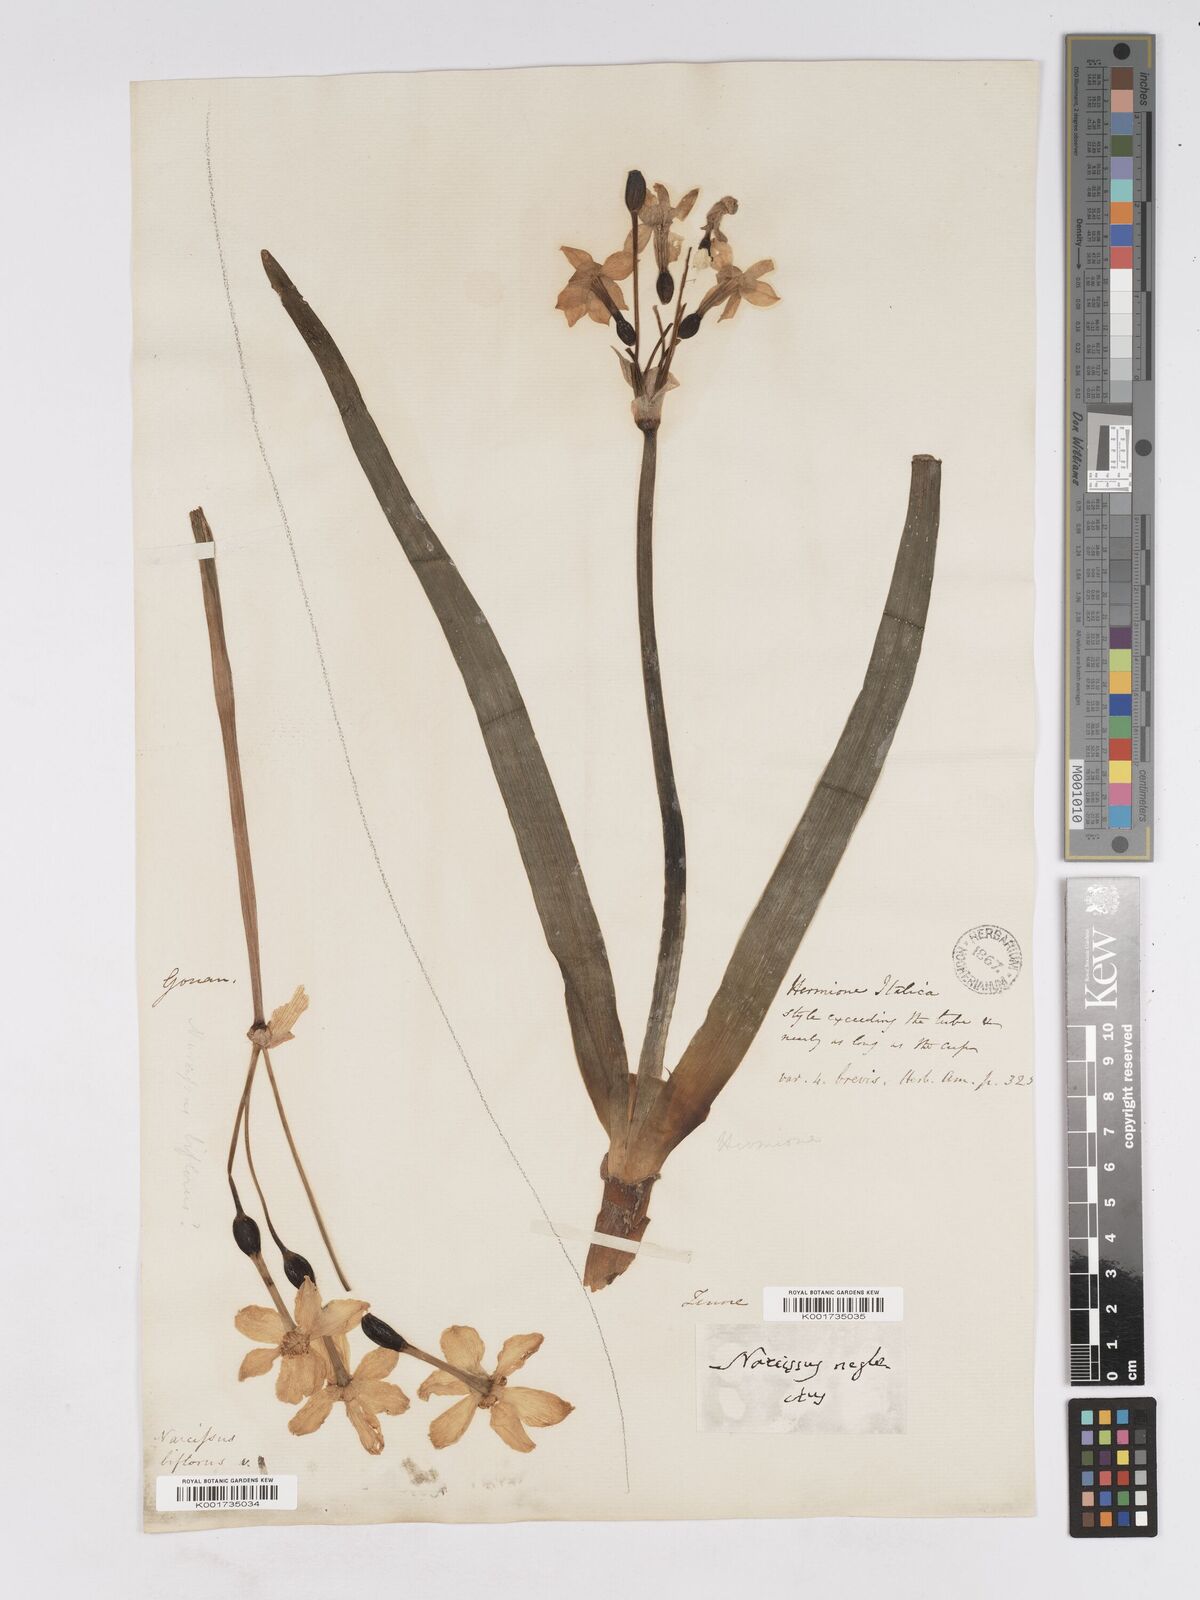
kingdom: Plantae
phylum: Tracheophyta
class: Liliopsida
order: Asparagales
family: Amaryllidaceae
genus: Narcissus
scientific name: Narcissus tazetta
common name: Bunch-flowered daffodil
